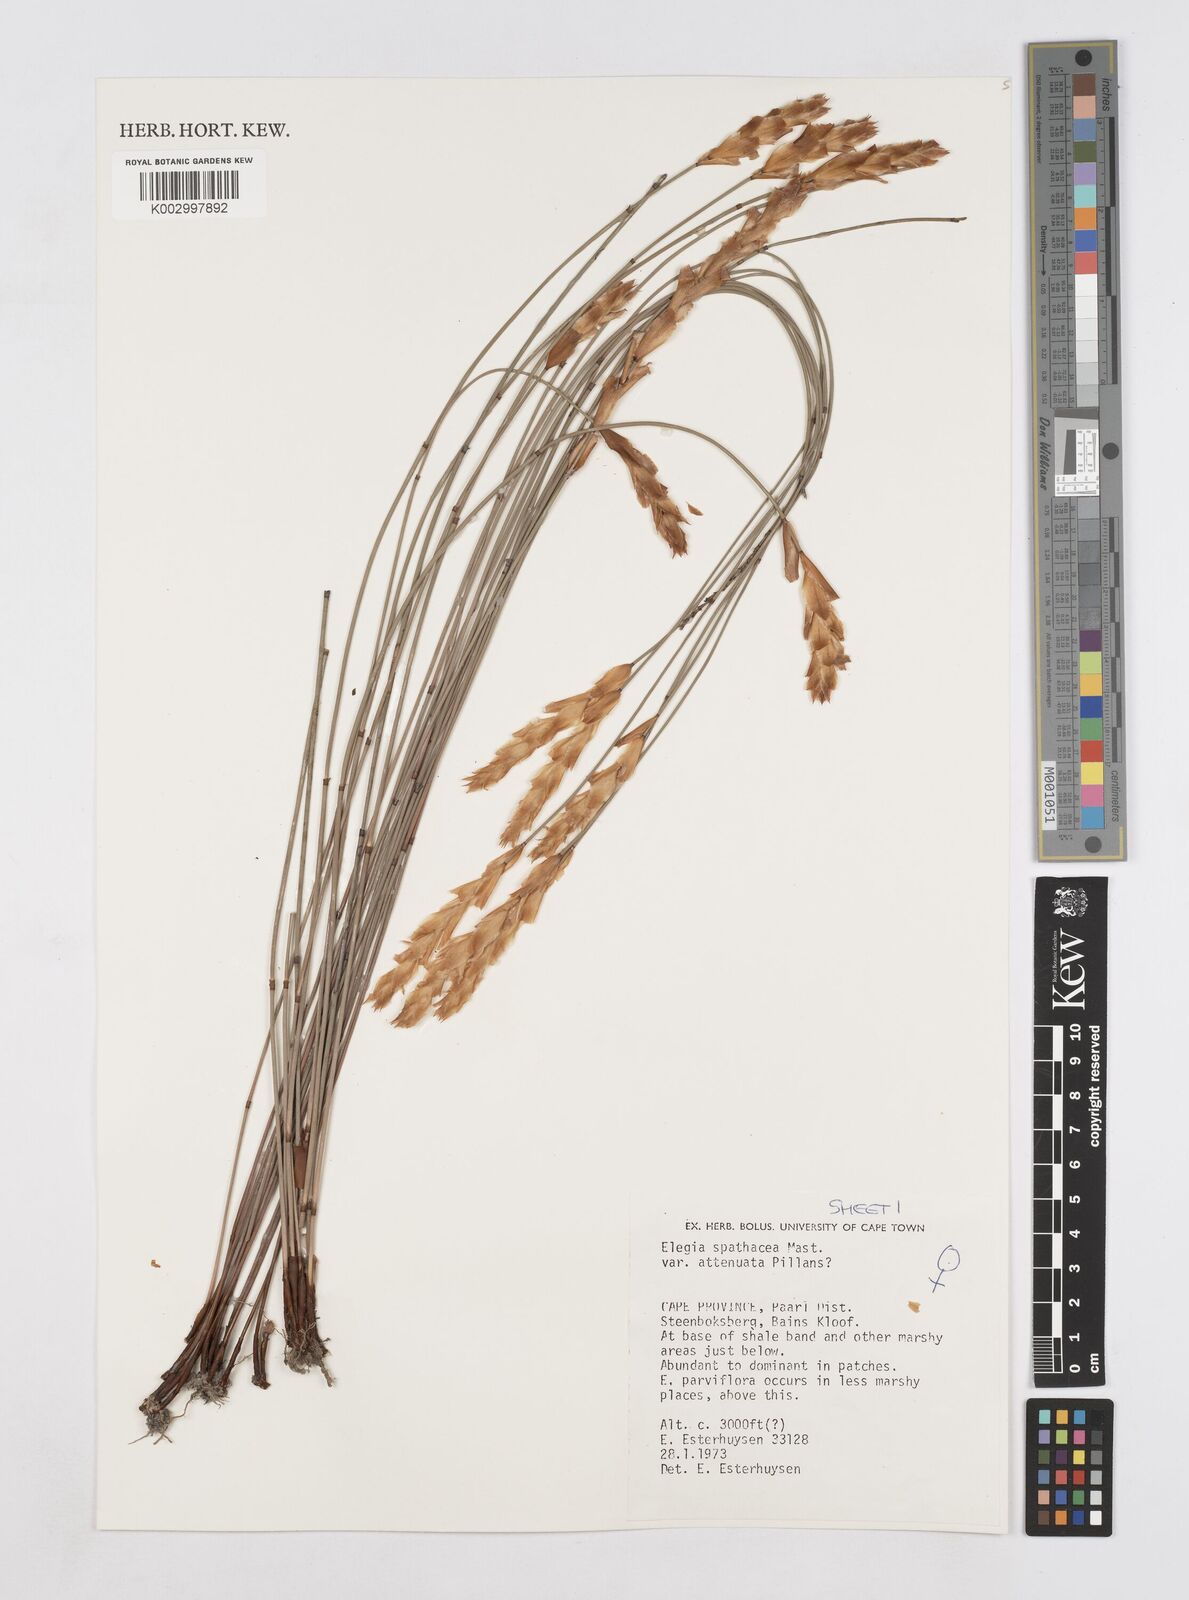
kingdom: Plantae
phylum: Tracheophyta
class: Liliopsida
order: Poales
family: Restionaceae
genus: Elegia
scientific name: Elegia rigida
